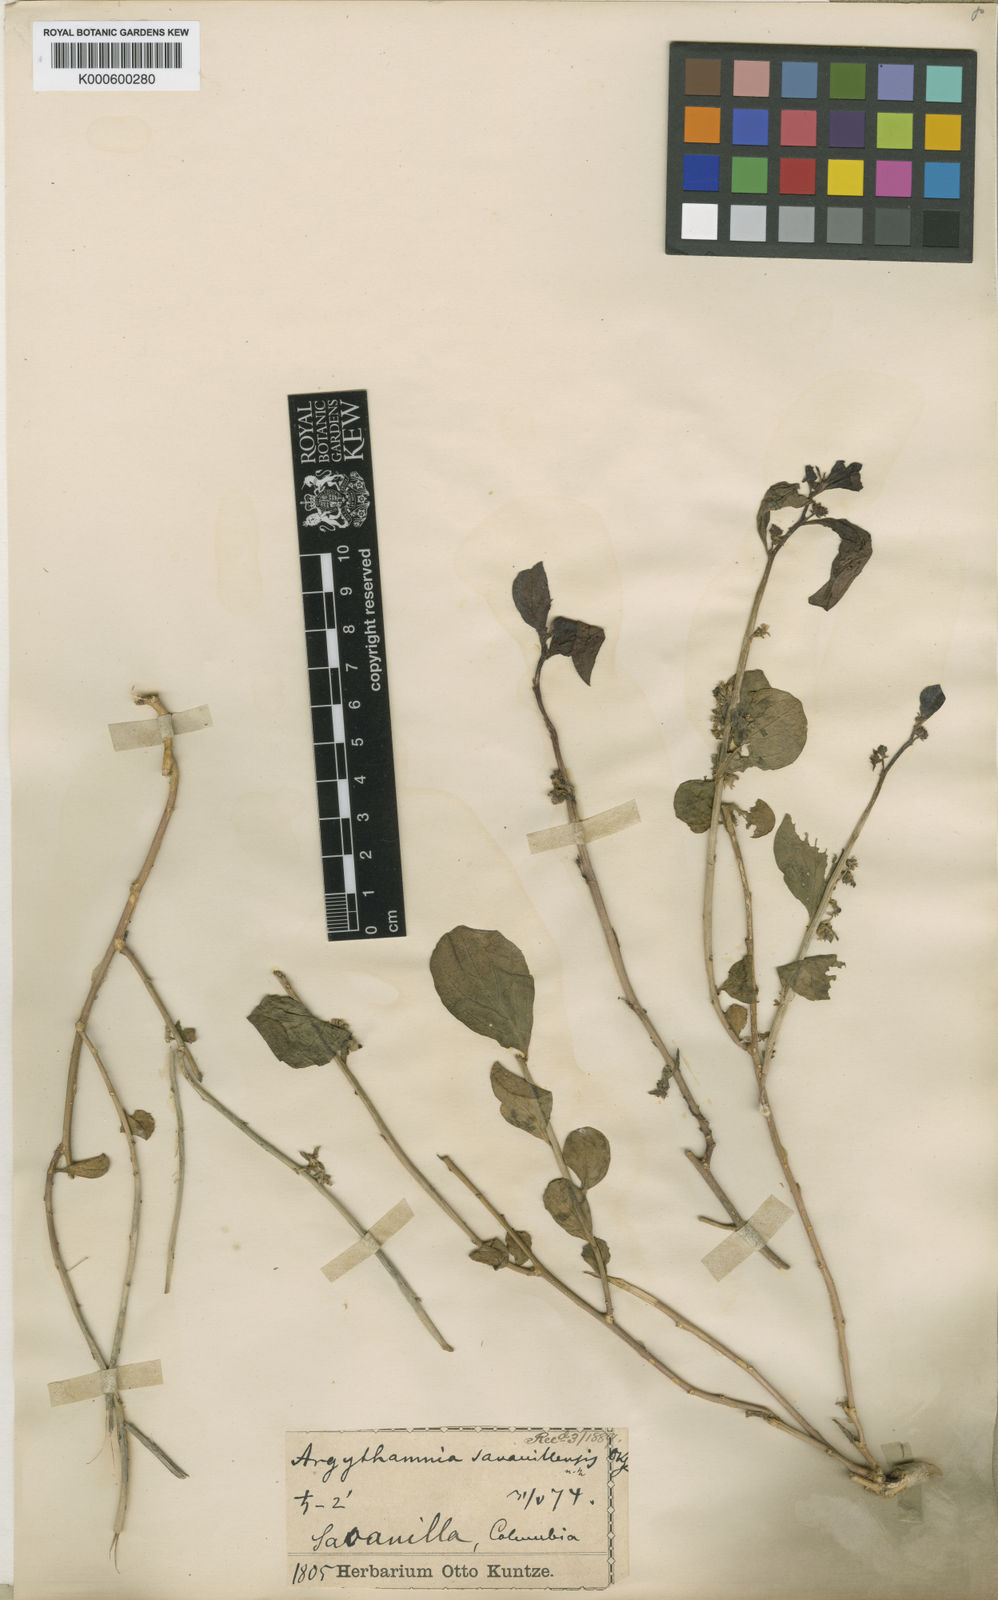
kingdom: Plantae
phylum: Tracheophyta
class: Magnoliopsida
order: Malpighiales
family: Euphorbiaceae
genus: Ditaxis
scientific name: Ditaxis
